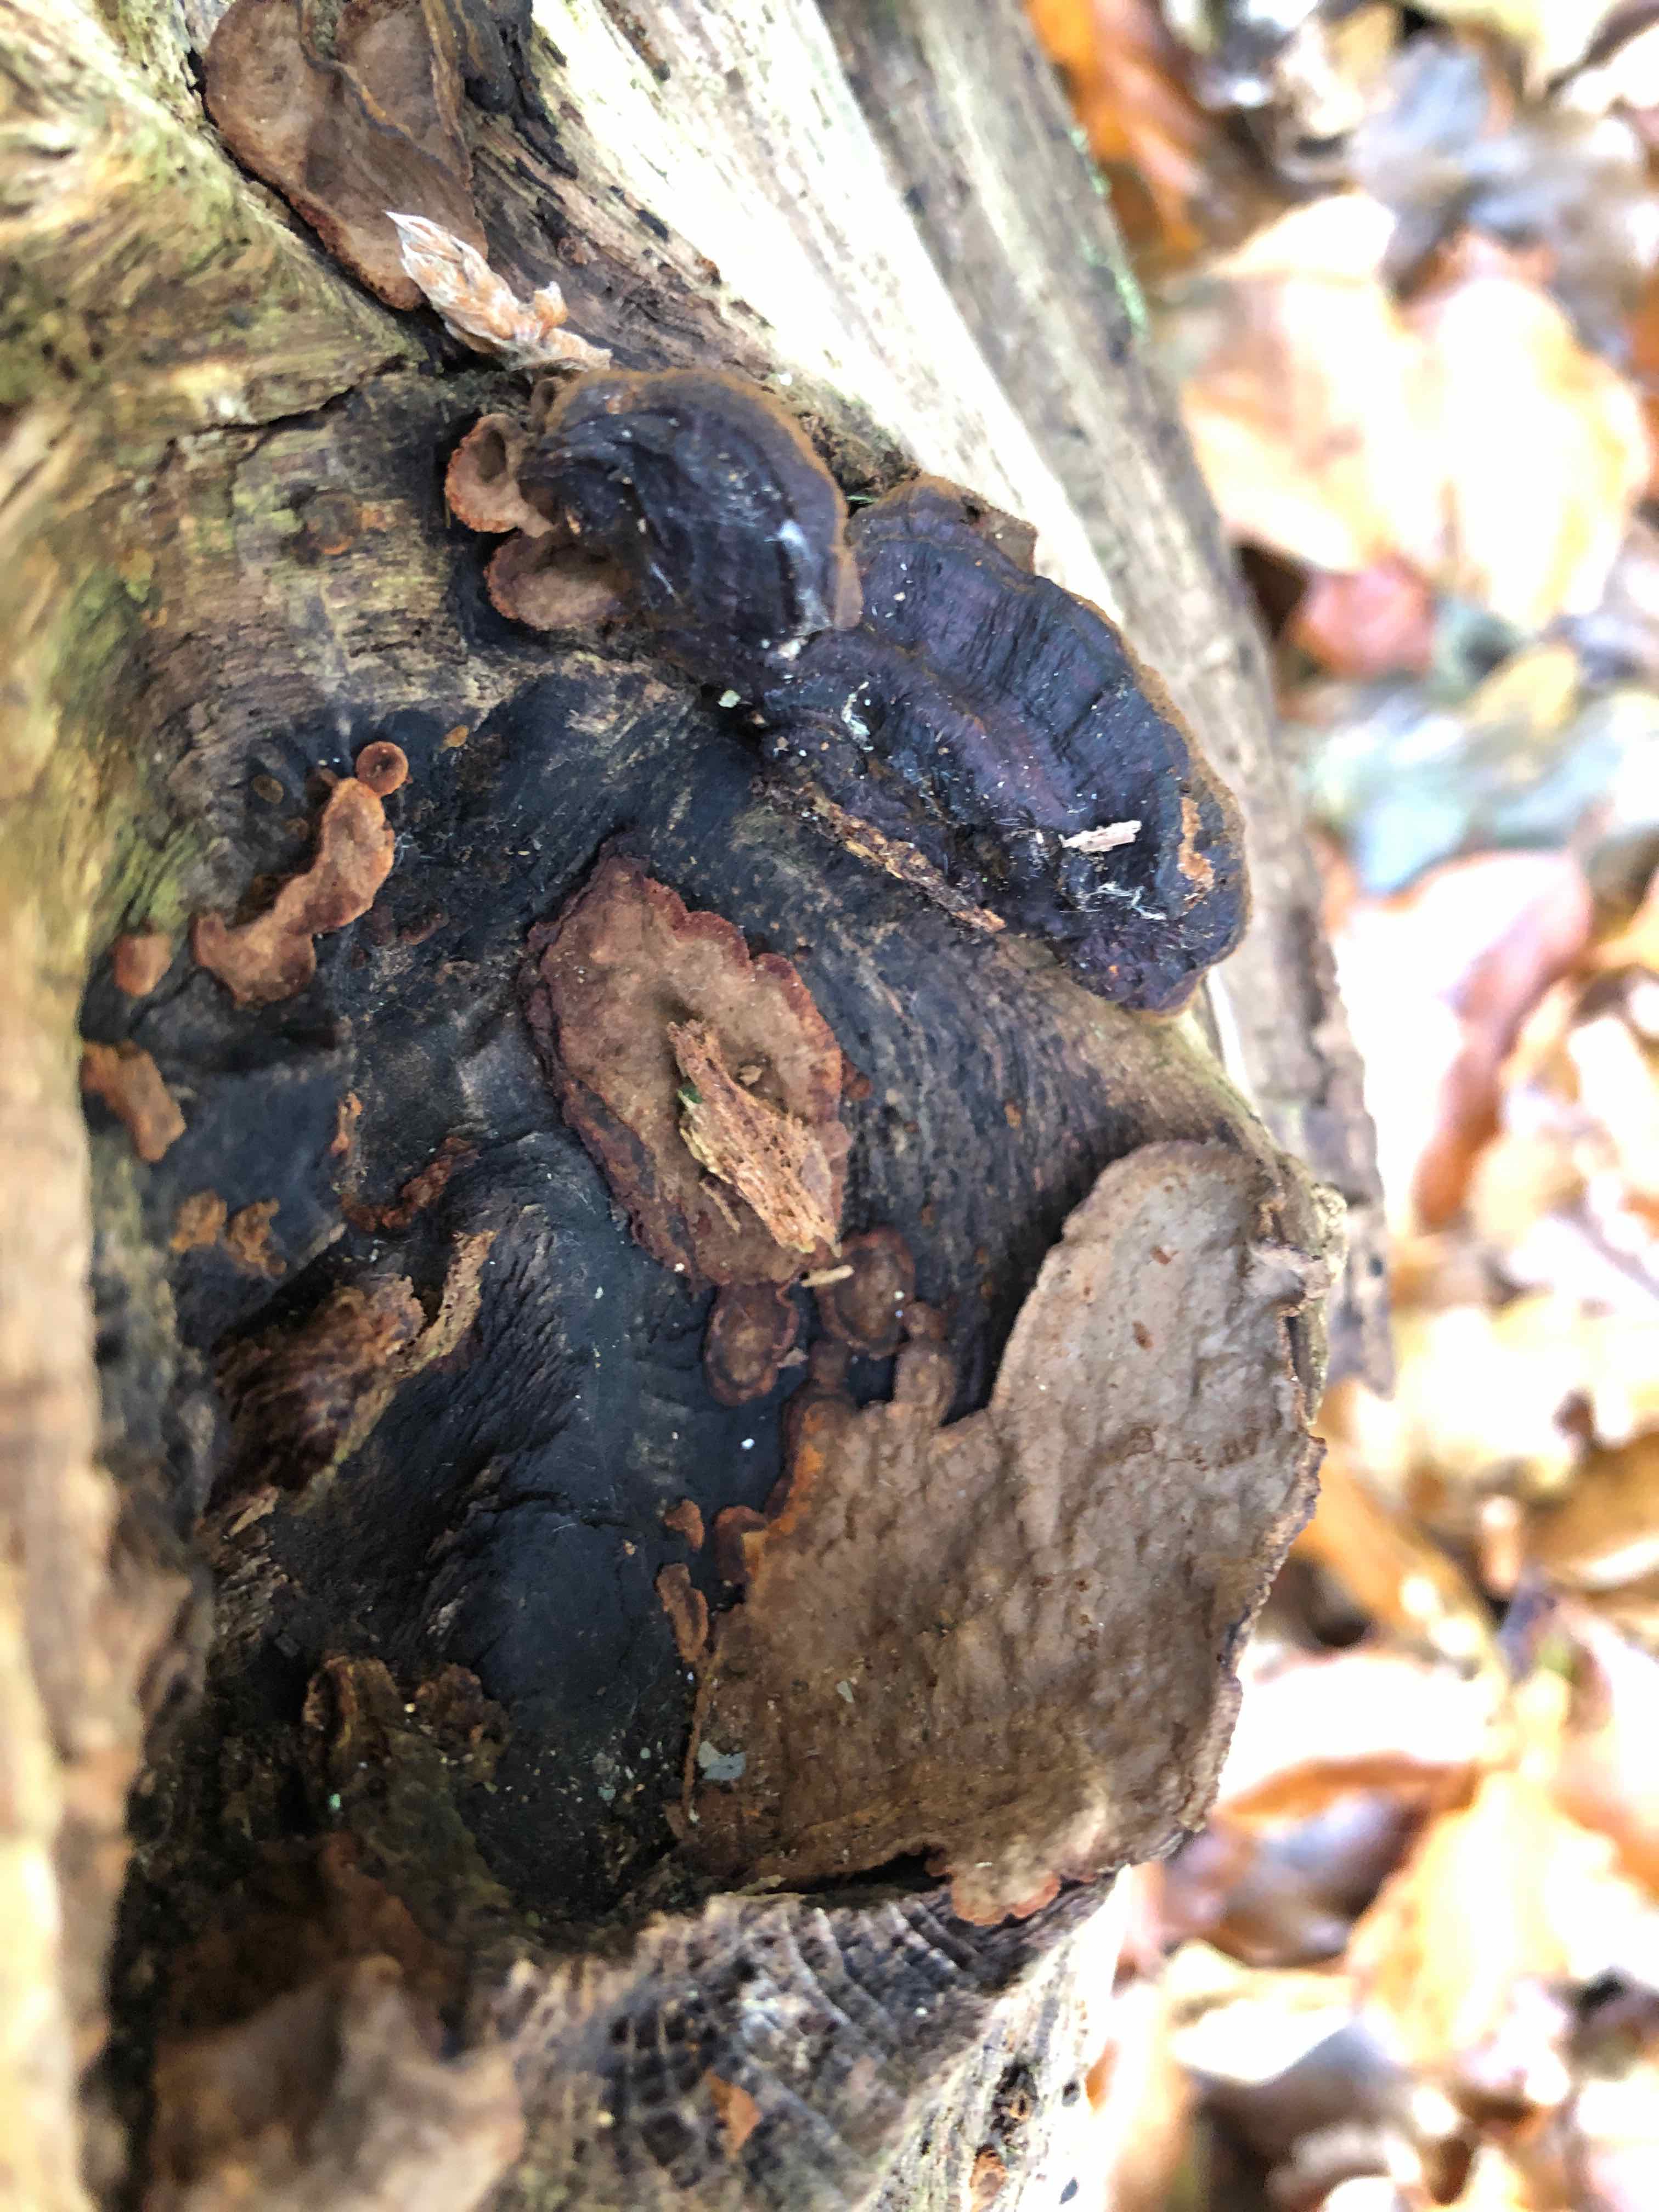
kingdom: Fungi
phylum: Basidiomycota
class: Agaricomycetes
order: Hymenochaetales
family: Hymenochaetaceae
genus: Hymenochaete
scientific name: Hymenochaete rubiginosa
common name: stiv ruslædersvamp
